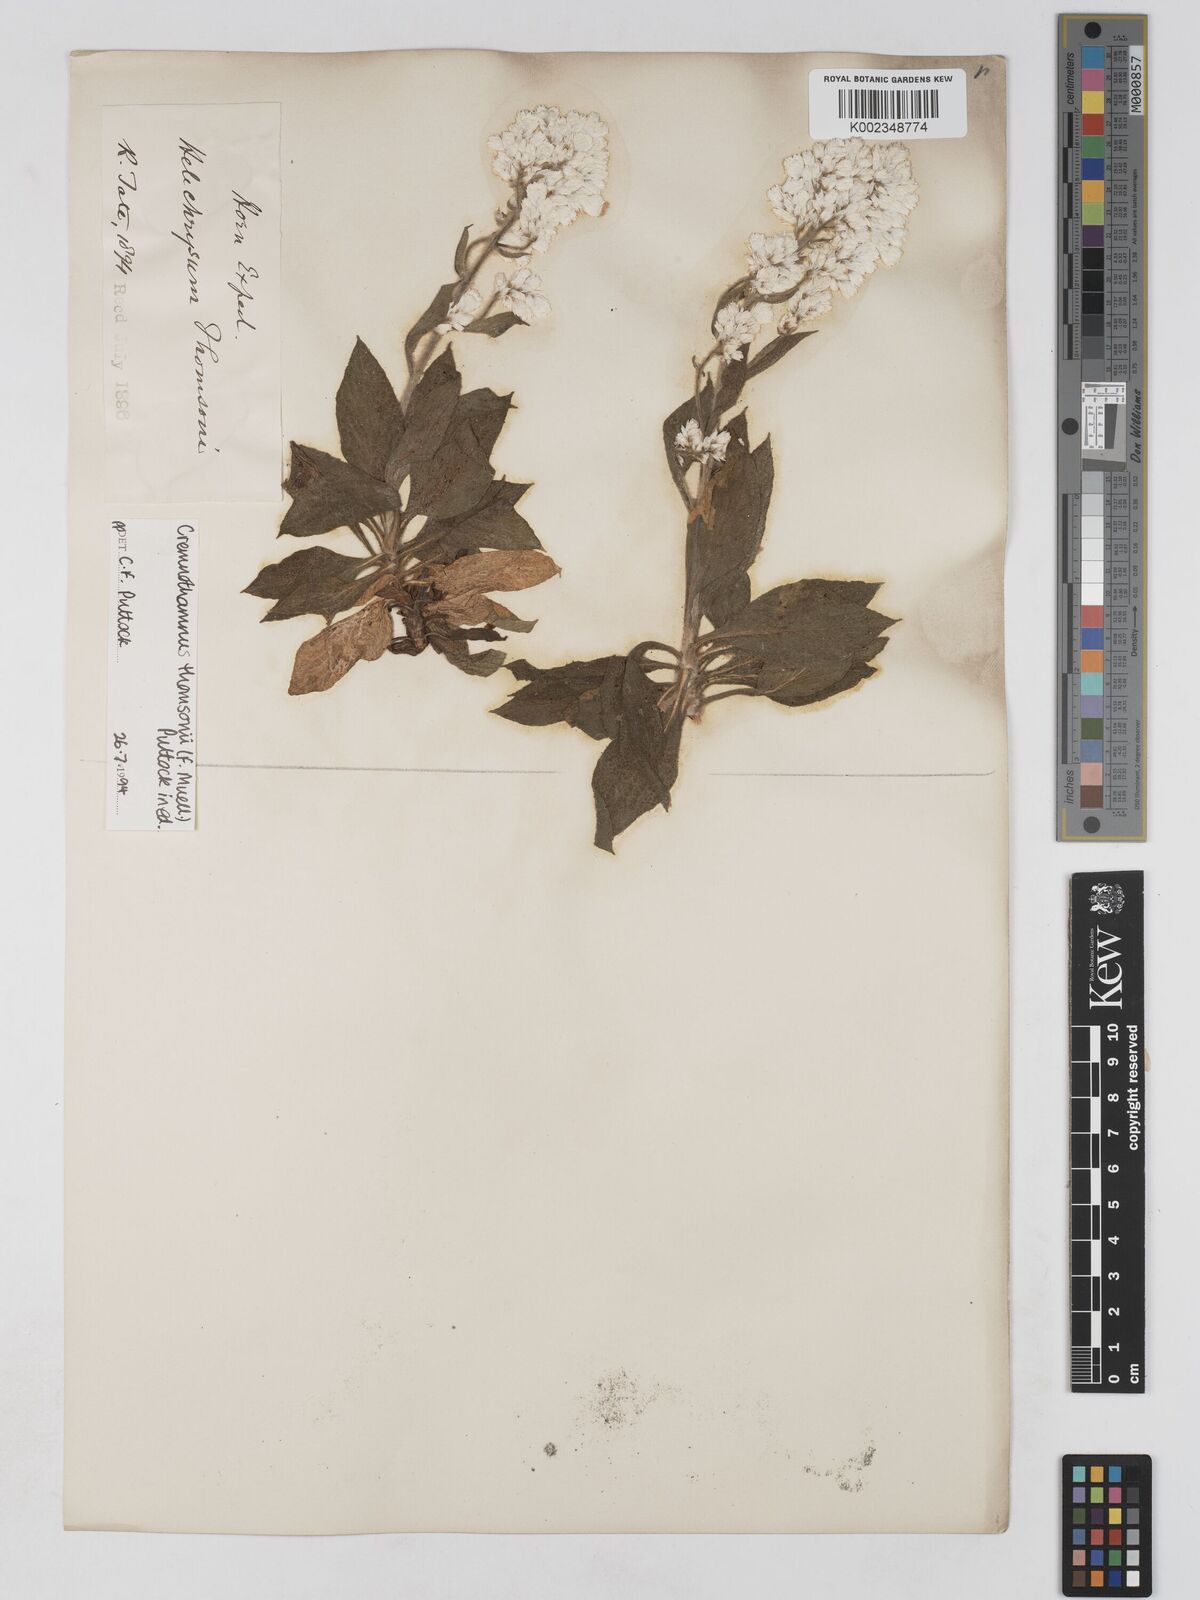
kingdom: Plantae
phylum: Tracheophyta
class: Magnoliopsida
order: Asterales
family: Asteraceae
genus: Cremnothamnus
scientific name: Cremnothamnus thomsonii
